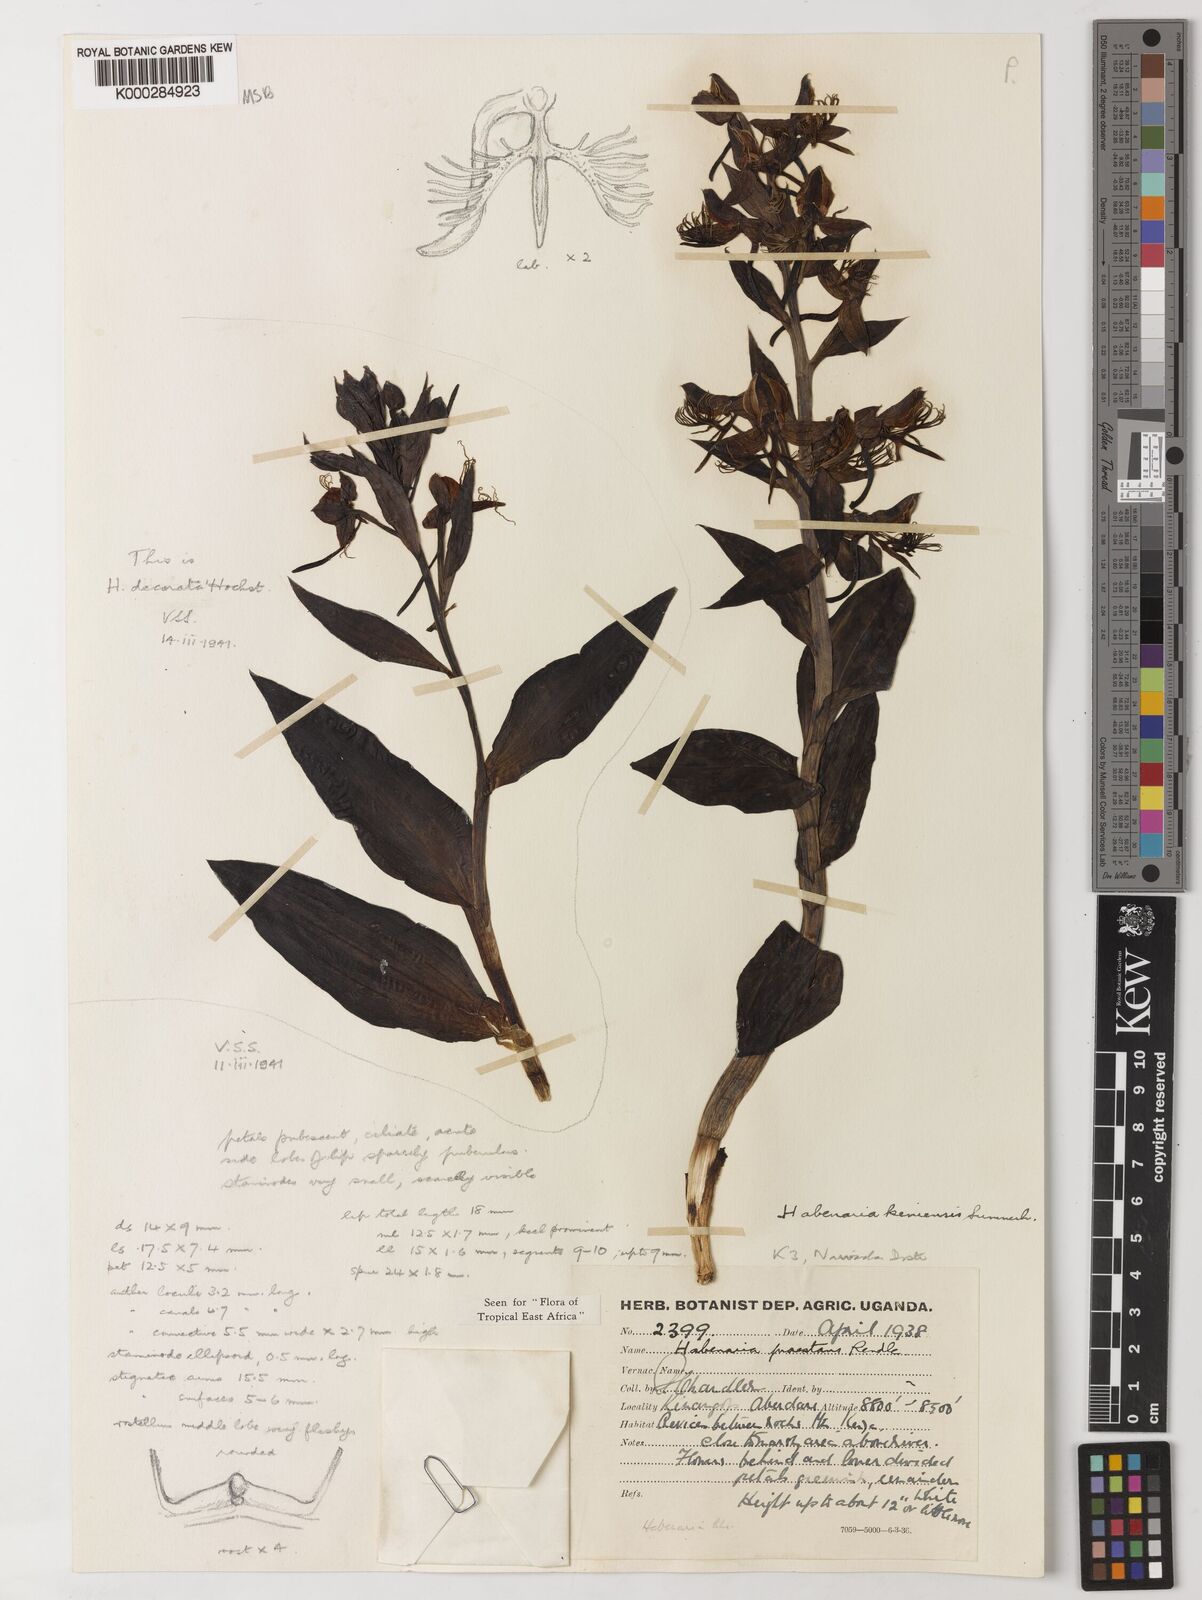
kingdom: Plantae
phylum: Tracheophyta
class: Liliopsida
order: Asparagales
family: Orchidaceae
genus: Habenaria
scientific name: Habenaria keniensis
